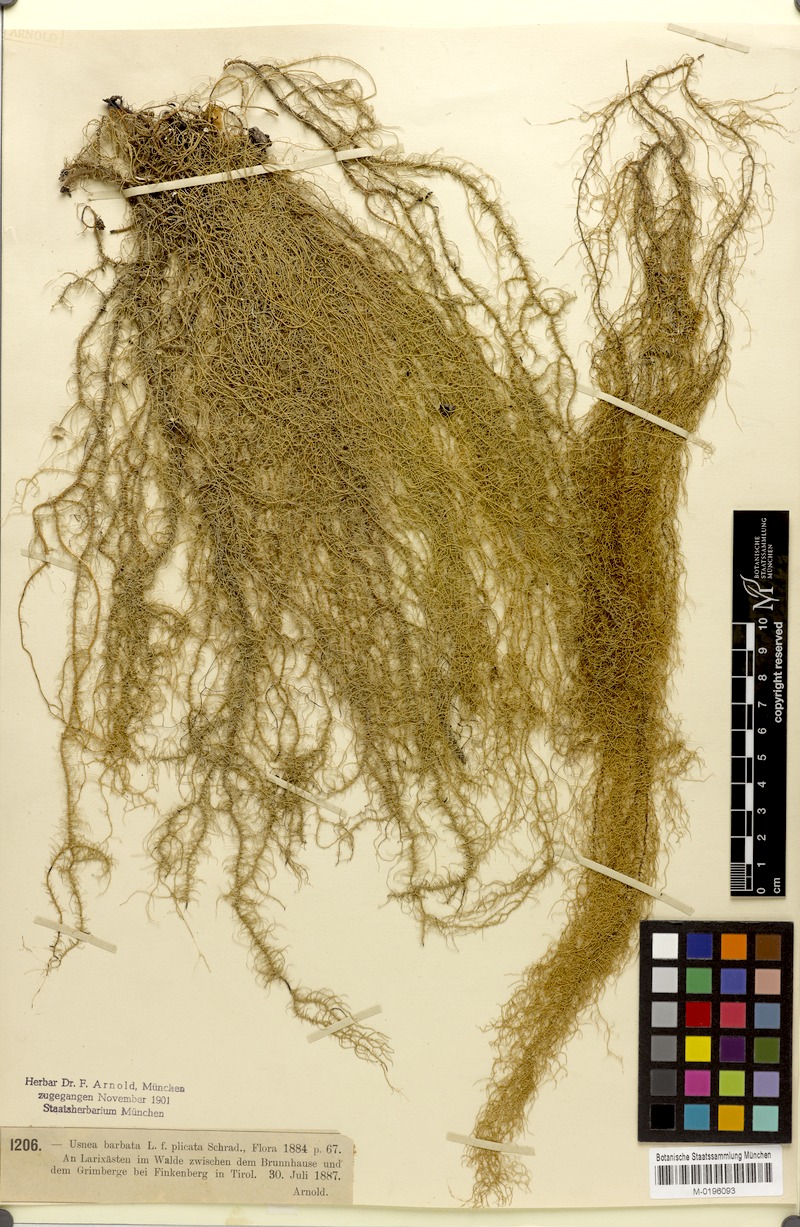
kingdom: Fungi
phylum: Ascomycota
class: Lecanoromycetes
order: Lecanorales
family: Parmeliaceae
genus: Usnea
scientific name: Usnea plicata
